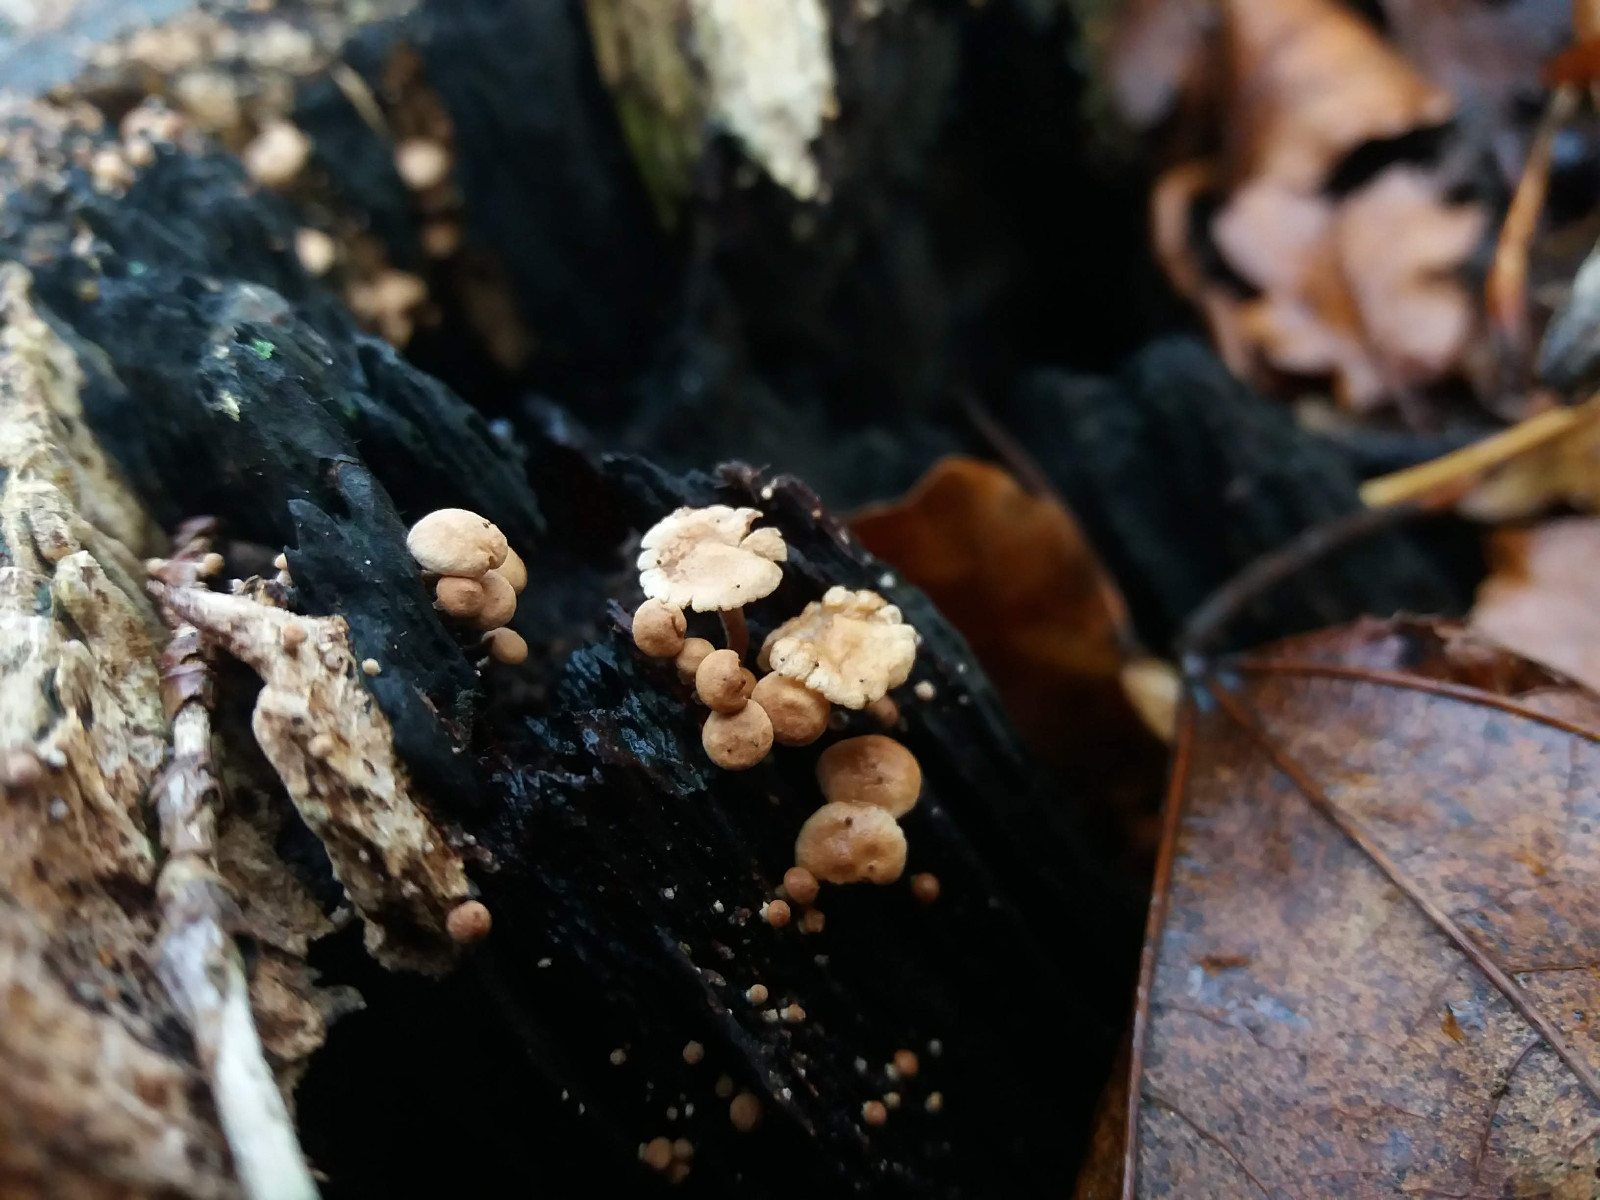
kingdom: Fungi
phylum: Basidiomycota
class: Agaricomycetes
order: Agaricales
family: Omphalotaceae
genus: Collybiopsis
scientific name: Collybiopsis ramealis
